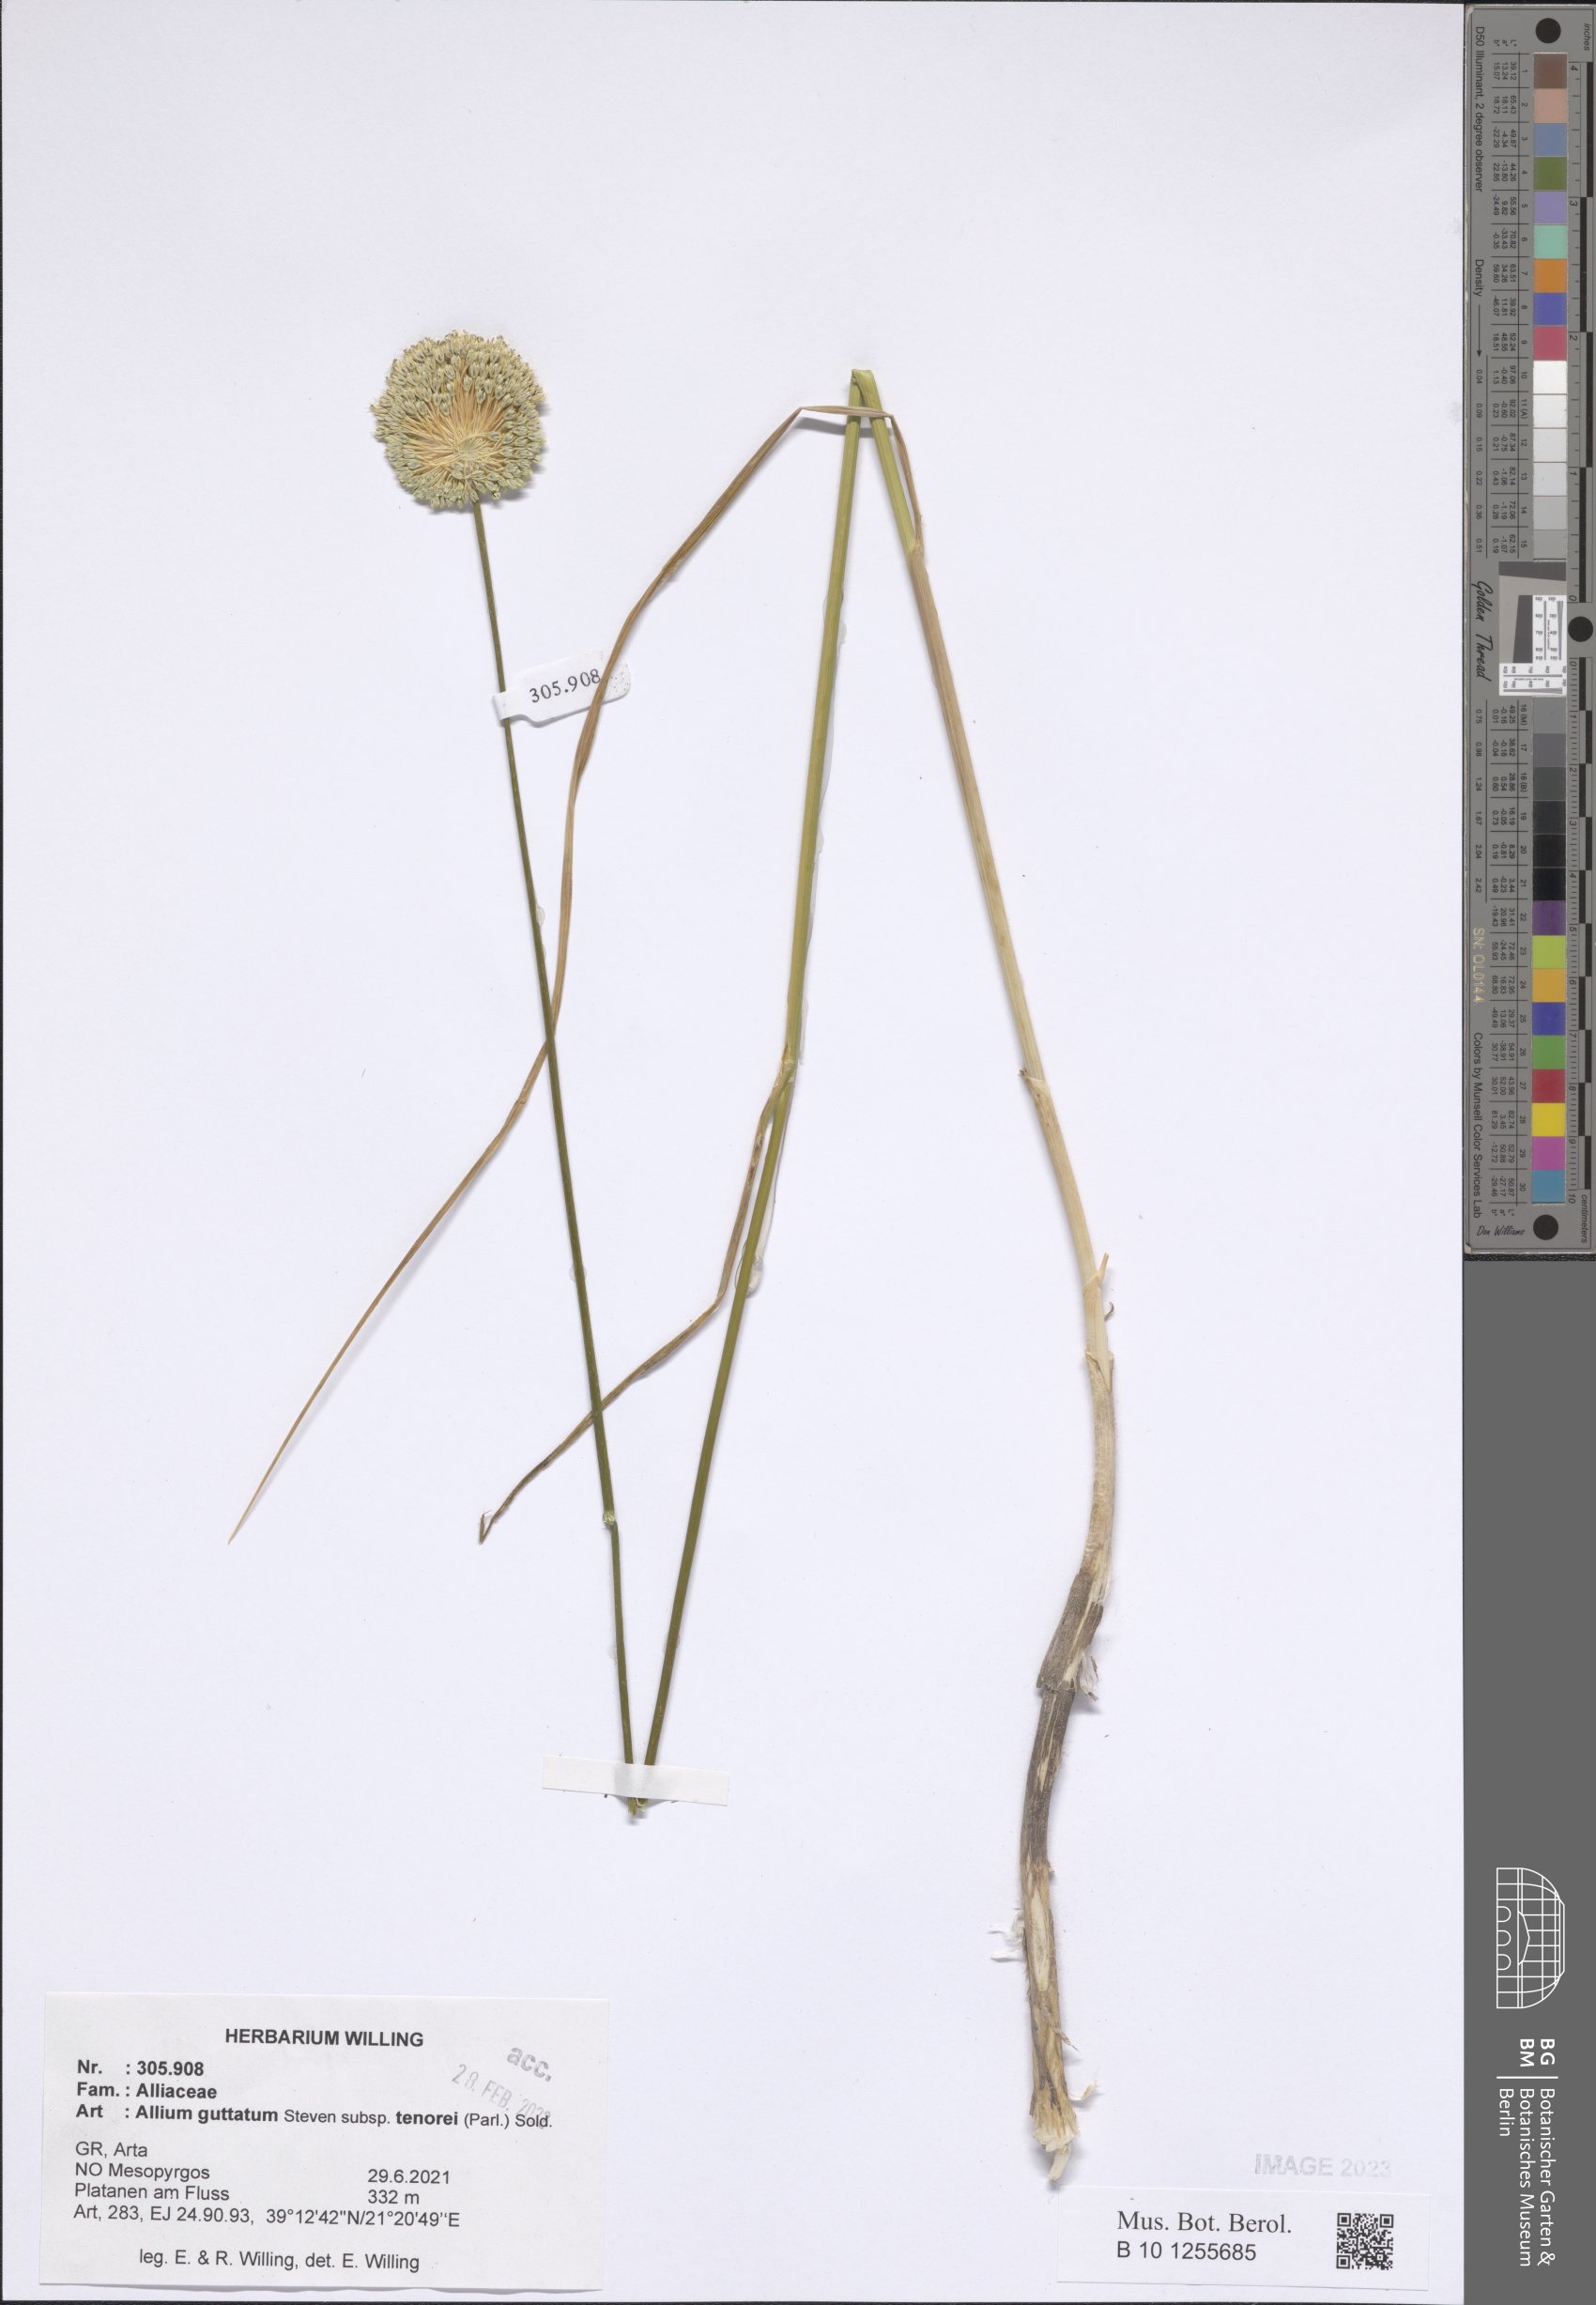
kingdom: Plantae
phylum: Tracheophyta
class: Liliopsida
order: Asparagales
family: Amaryllidaceae
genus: Allium
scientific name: Allium sardoum
